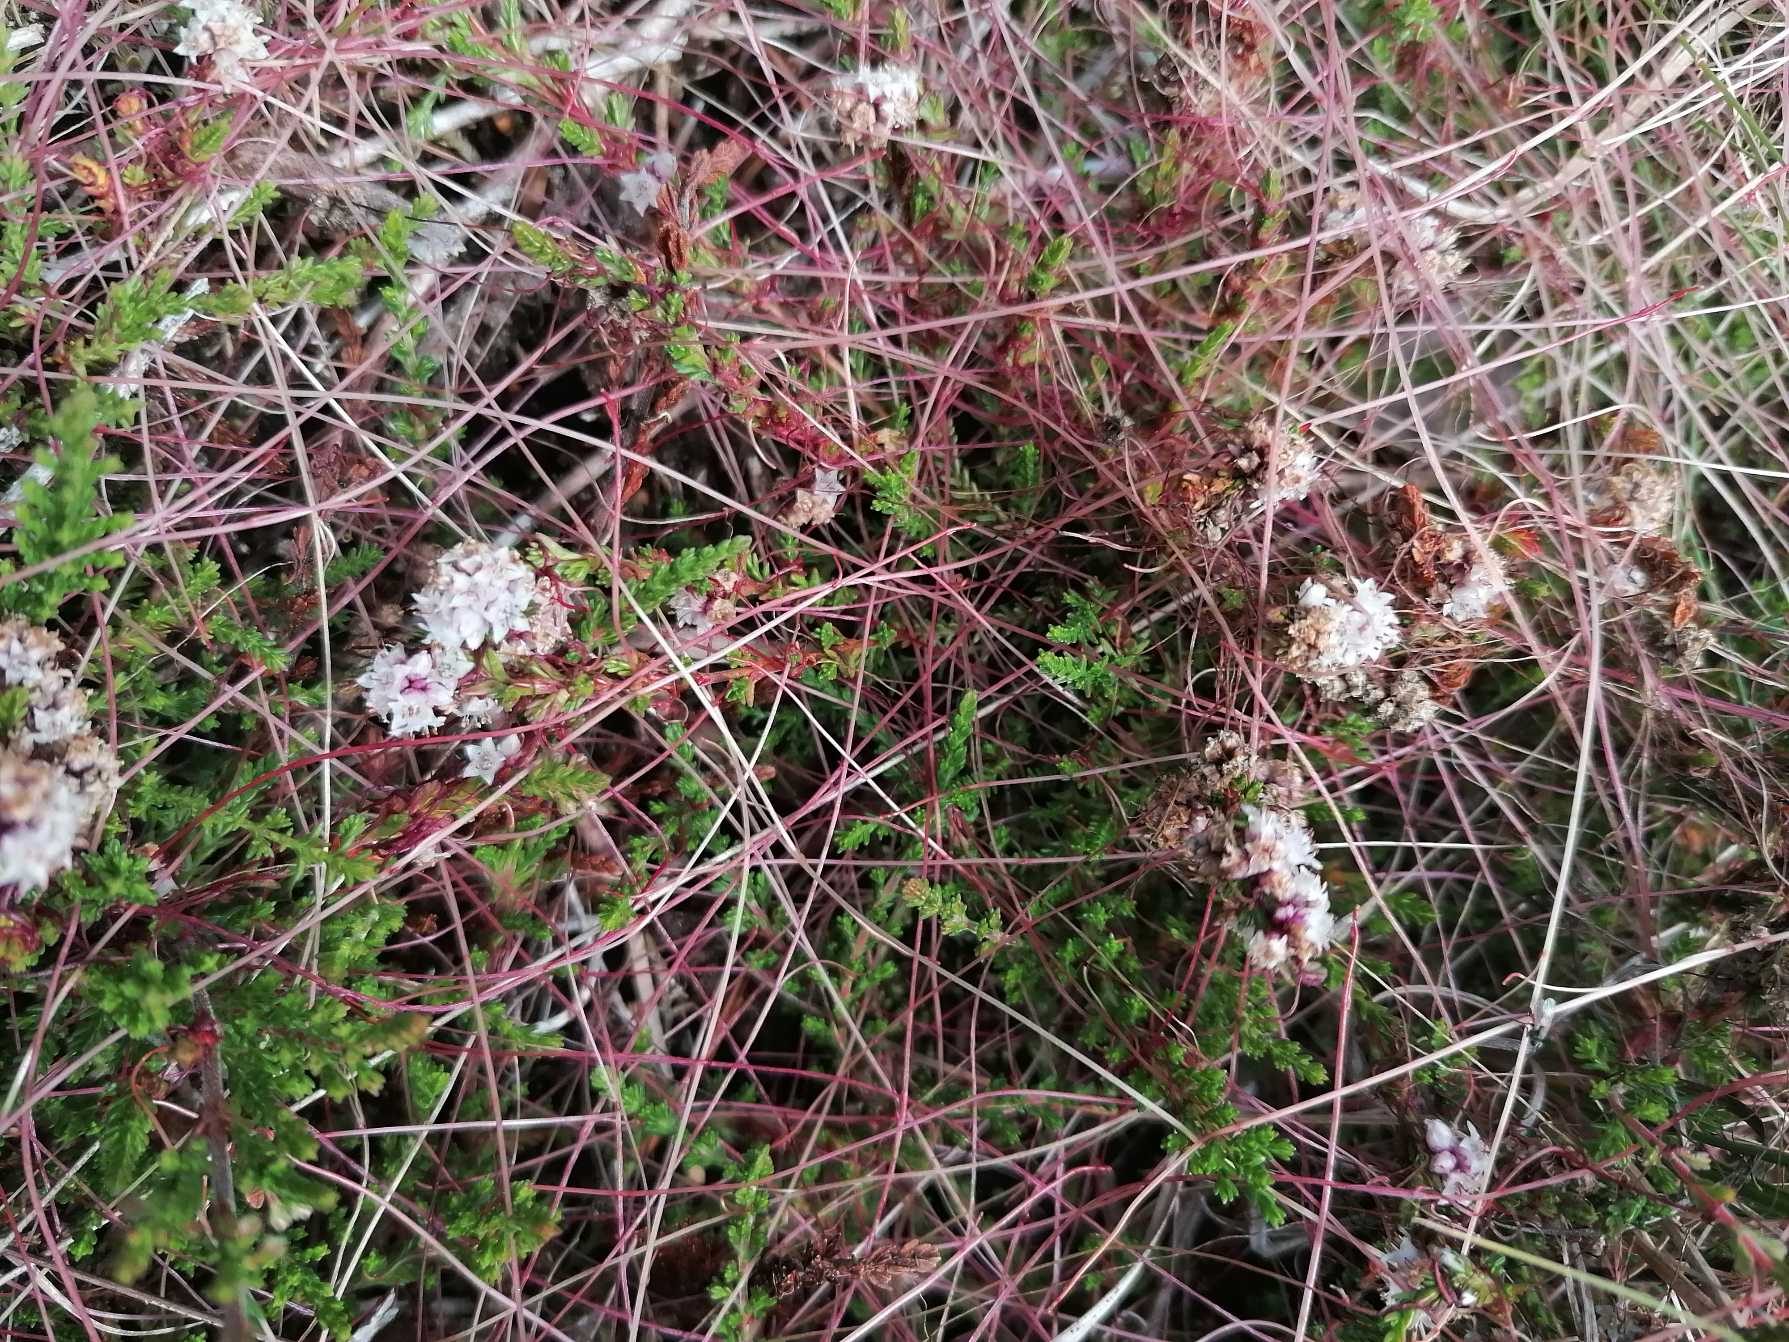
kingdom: Plantae
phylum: Tracheophyta
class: Magnoliopsida
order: Solanales
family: Convolvulaceae
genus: Cuscuta
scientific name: Cuscuta epithymum
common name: Lyng-silke
